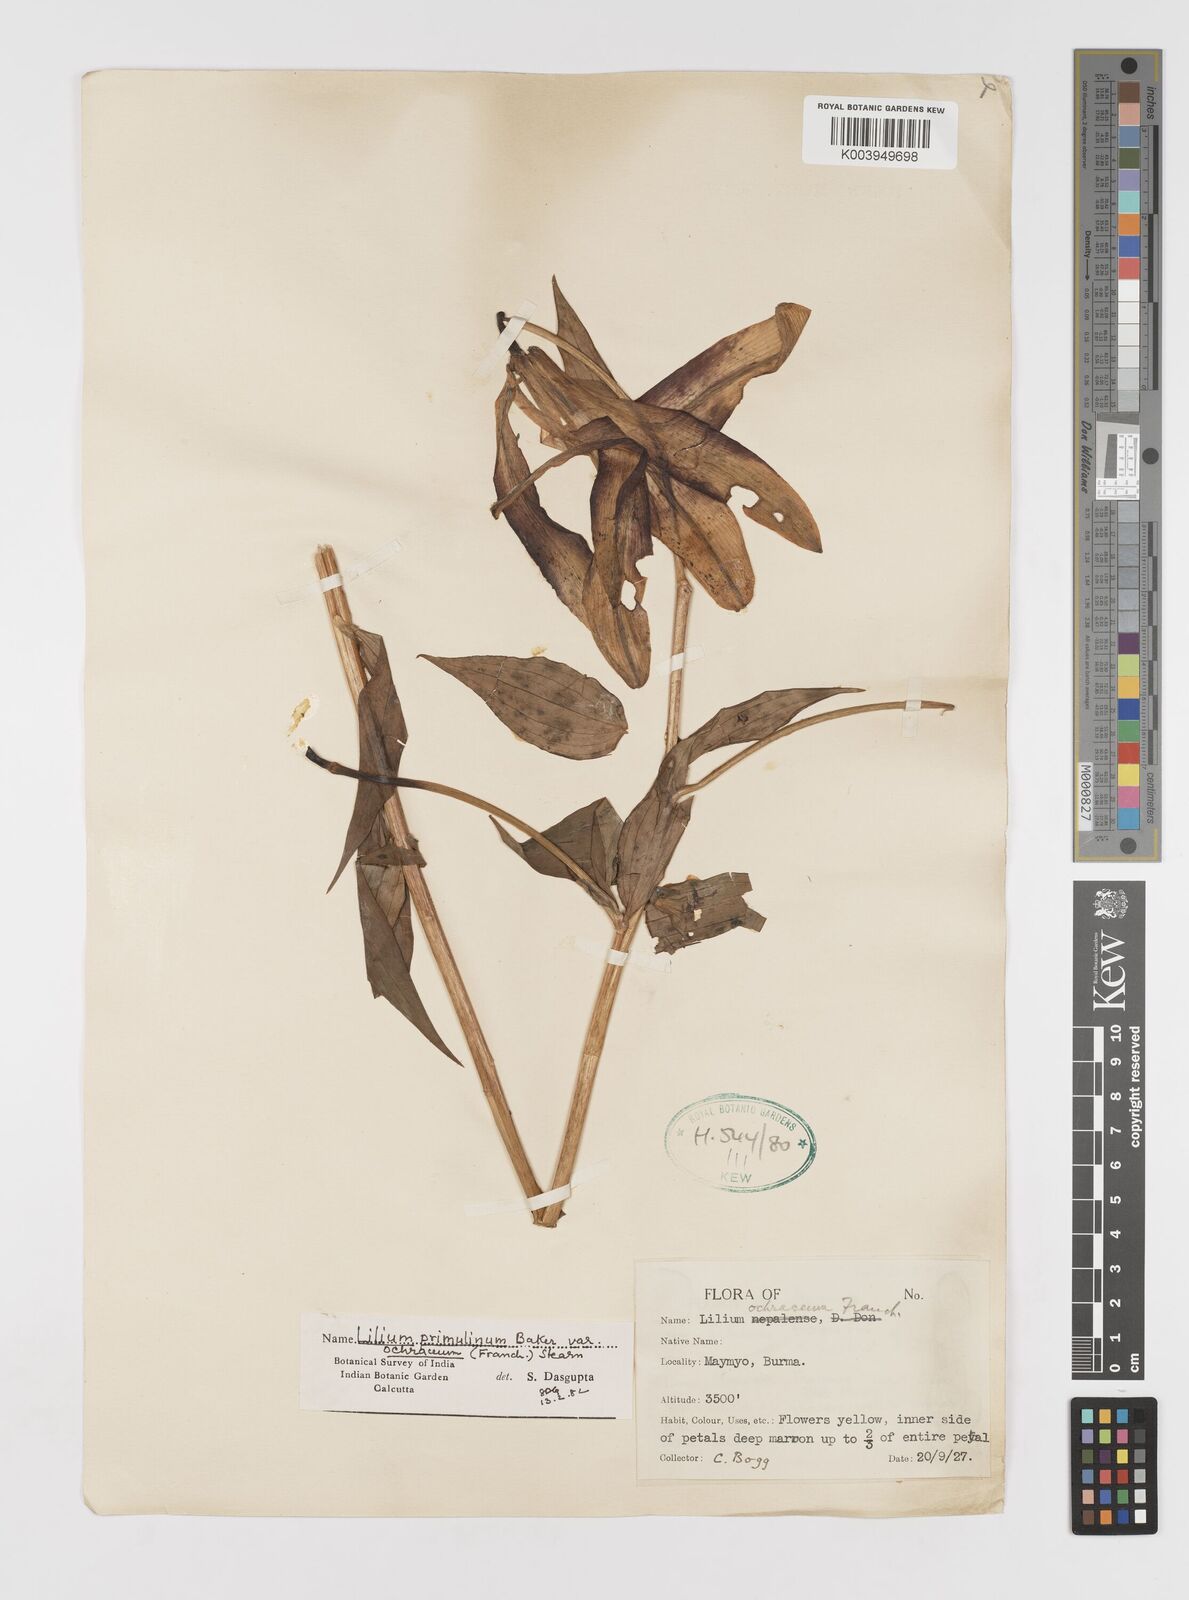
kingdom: Plantae
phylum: Tracheophyta
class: Liliopsida
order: Liliales
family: Liliaceae
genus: Lilium
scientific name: Lilium primulinum
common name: Ochre lily
